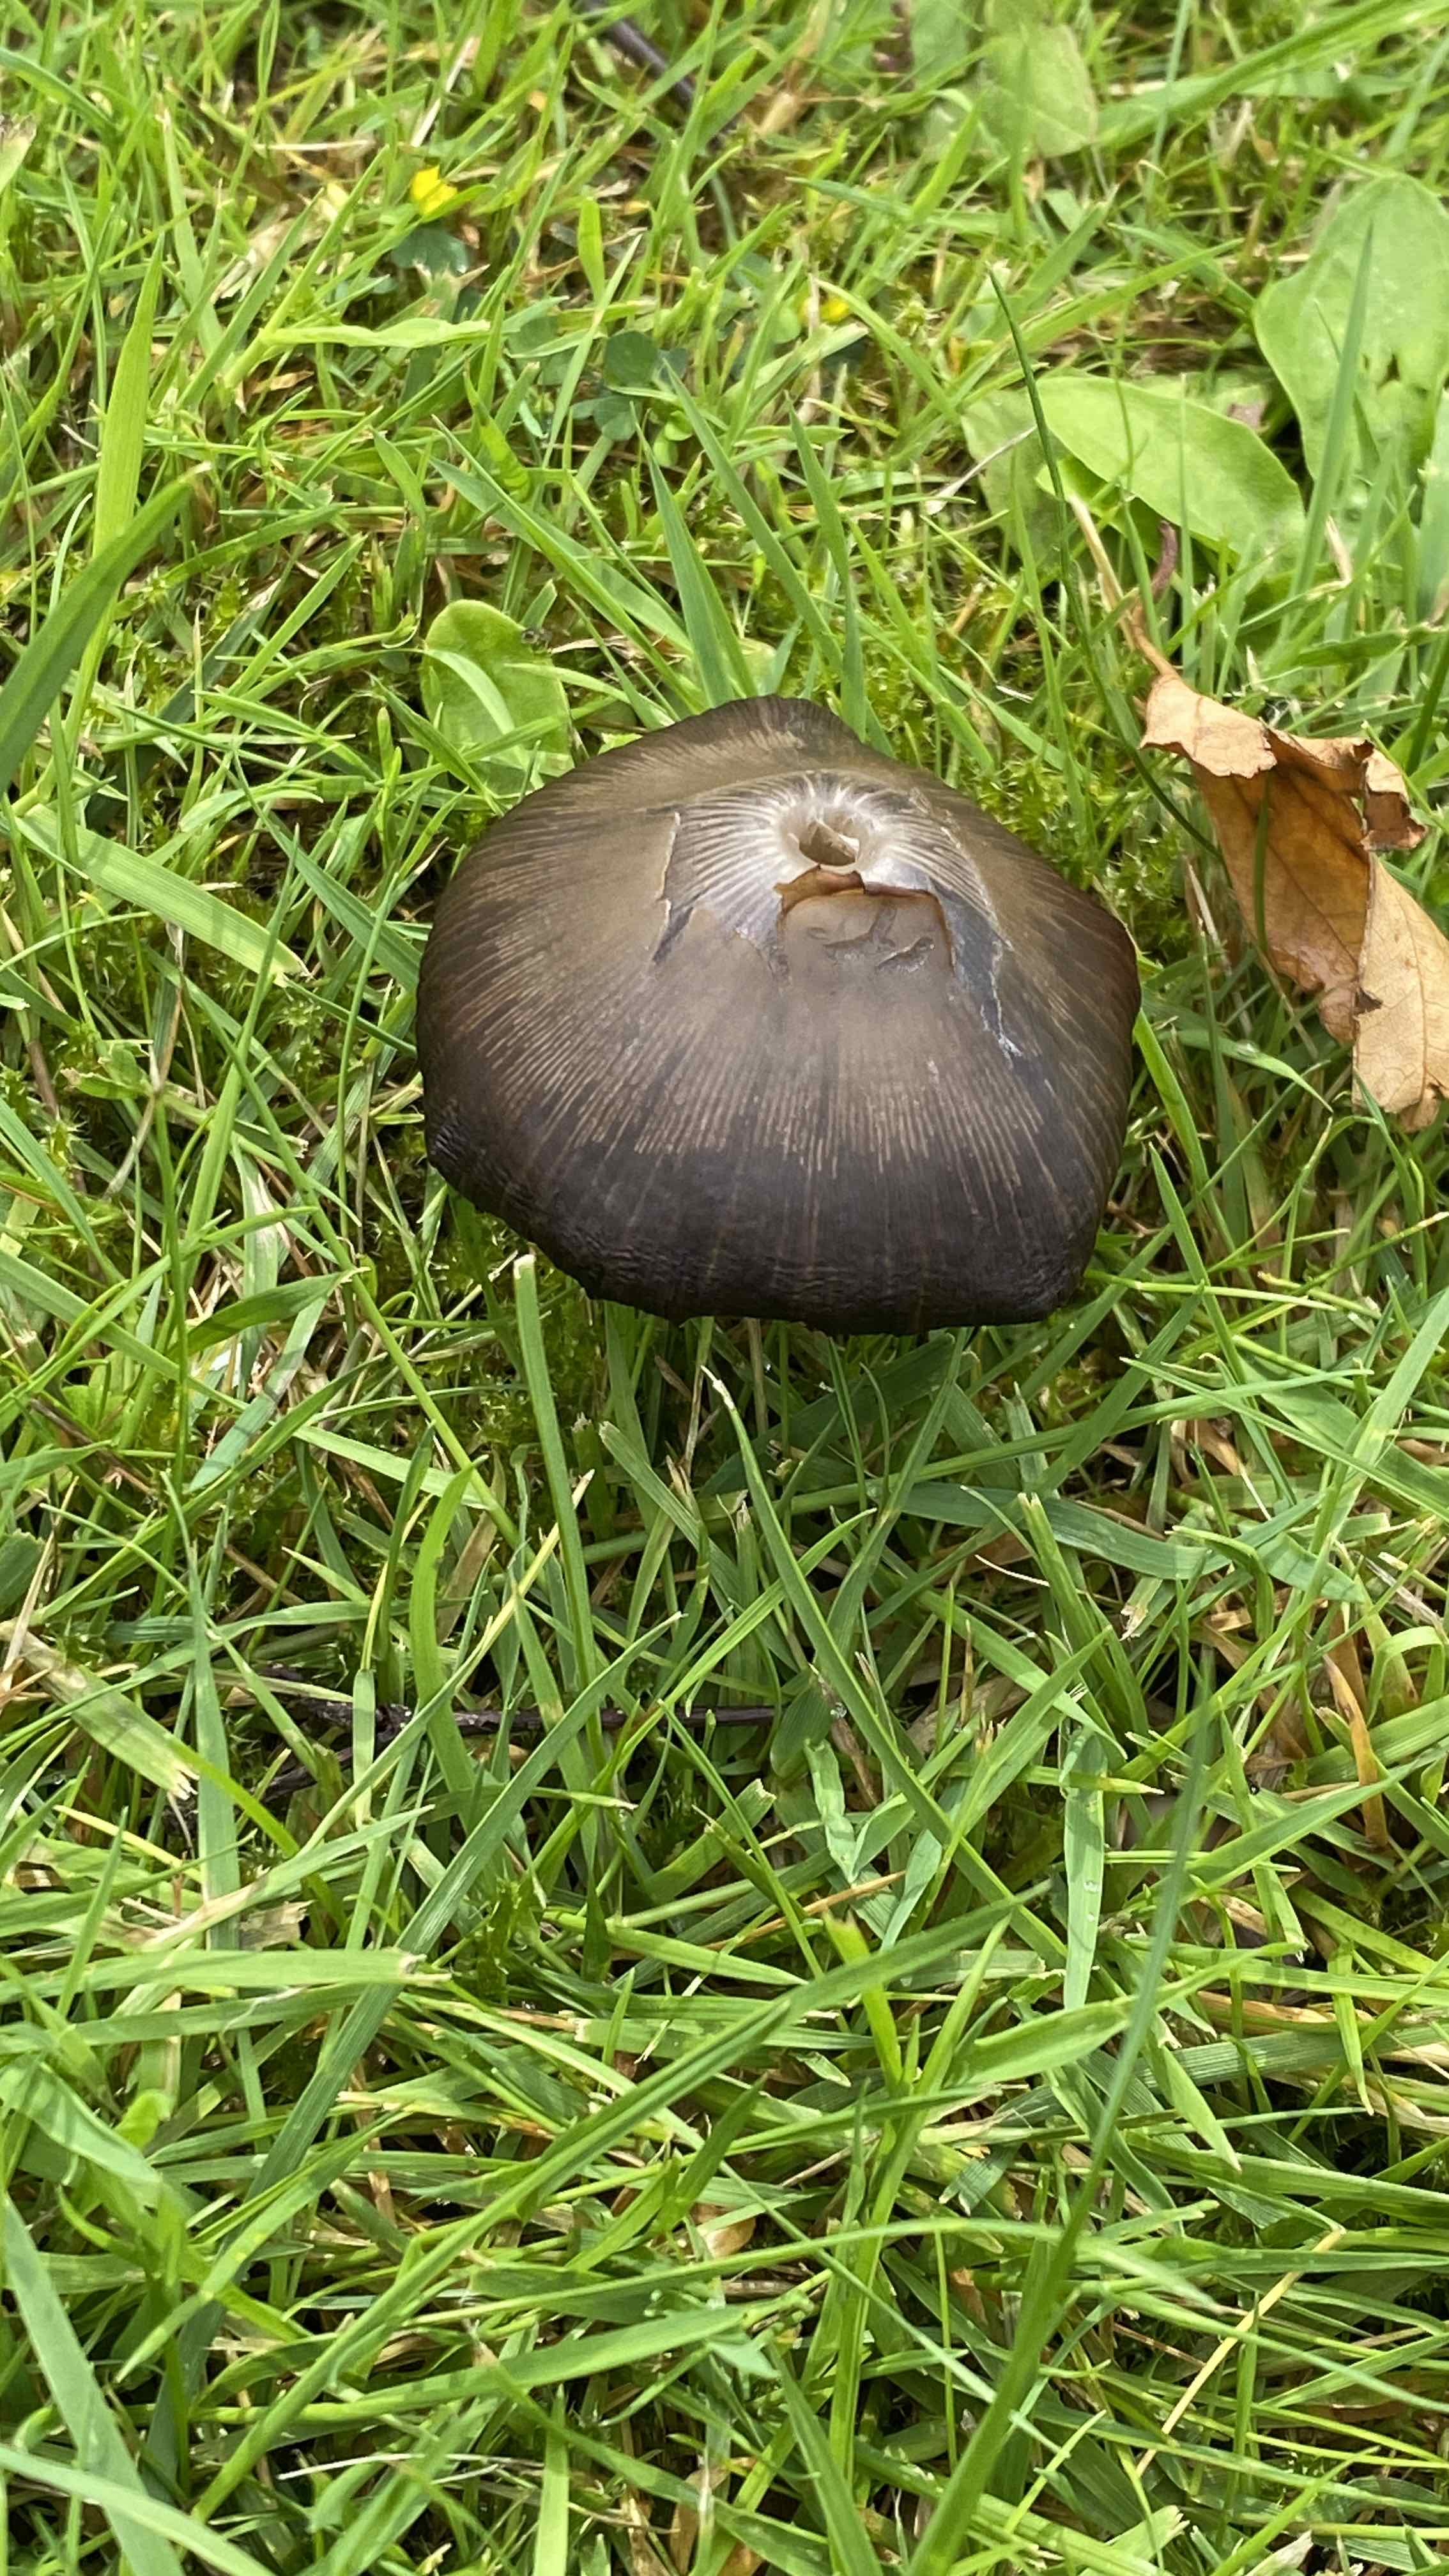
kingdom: Fungi
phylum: Basidiomycota
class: Agaricomycetes
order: Agaricales
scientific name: Agaricales
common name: champignonordenen
